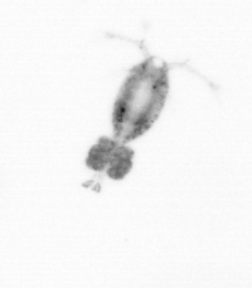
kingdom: Animalia
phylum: Arthropoda
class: Copepoda
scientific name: Copepoda
